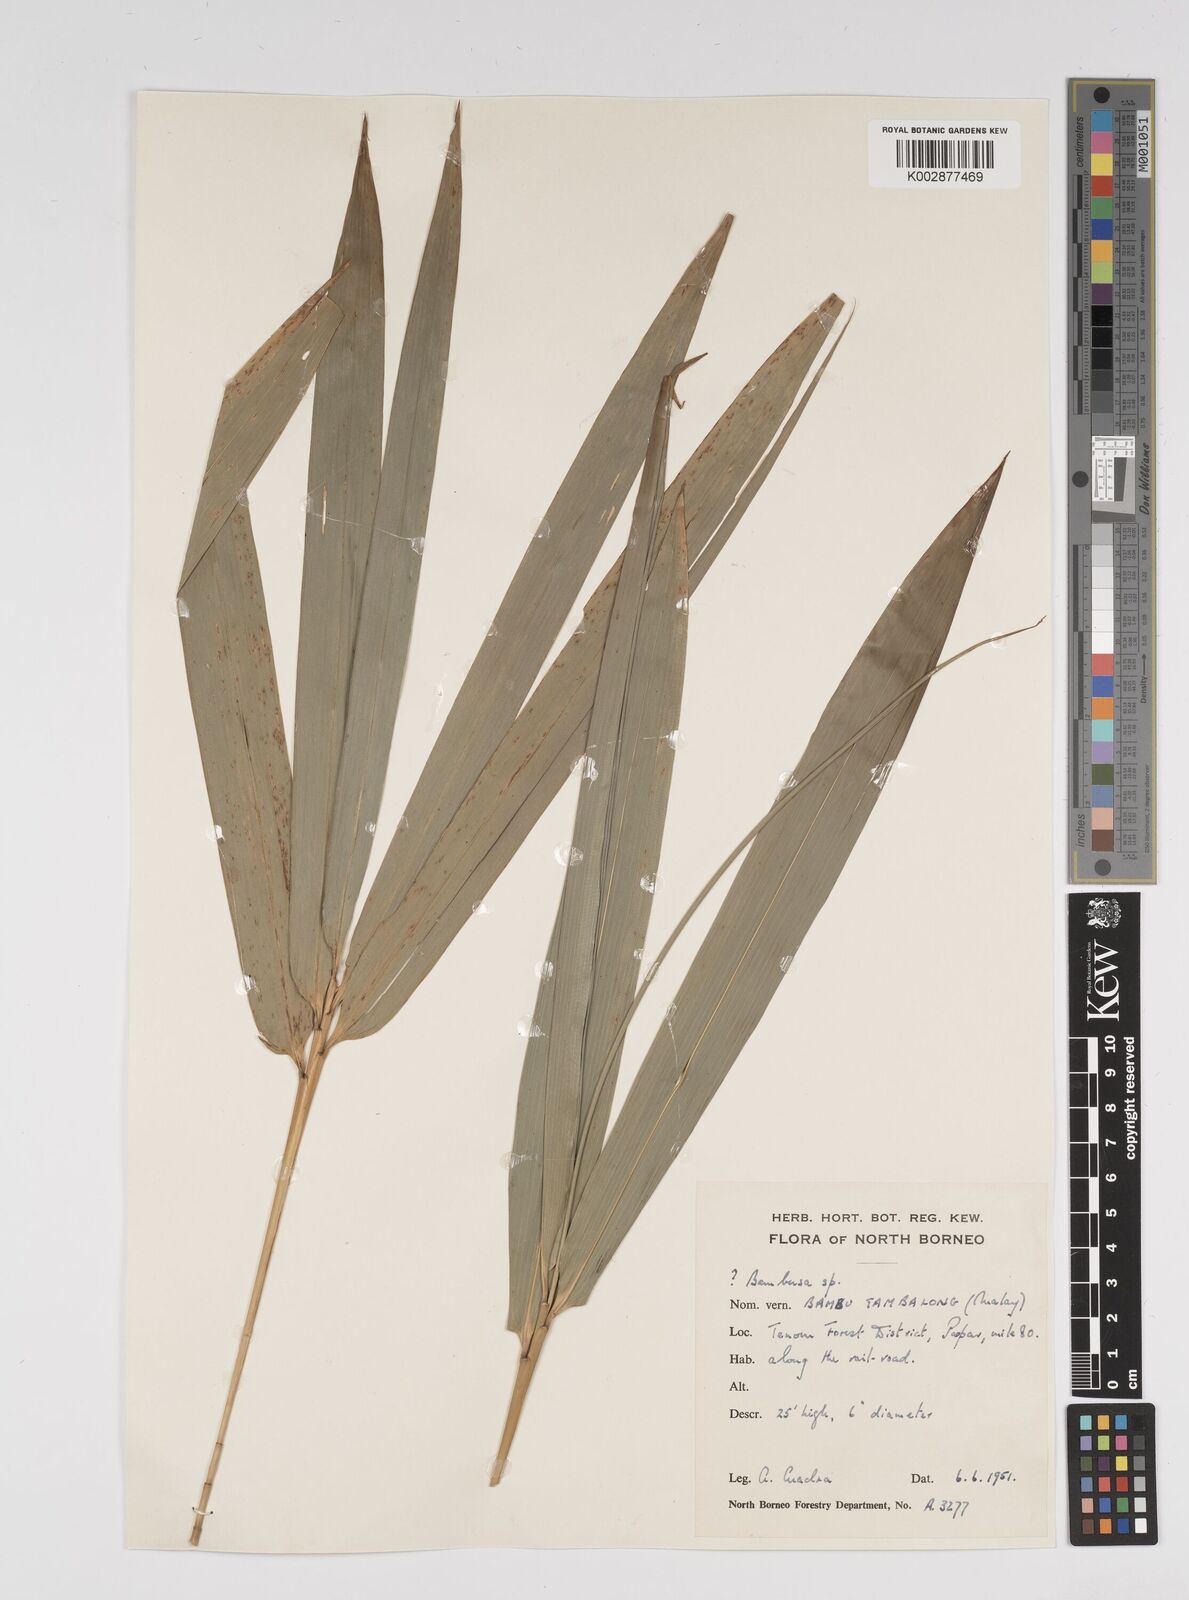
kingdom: Plantae
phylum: Tracheophyta
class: Liliopsida
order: Poales
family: Poaceae
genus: Bambusa
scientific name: Bambusa
